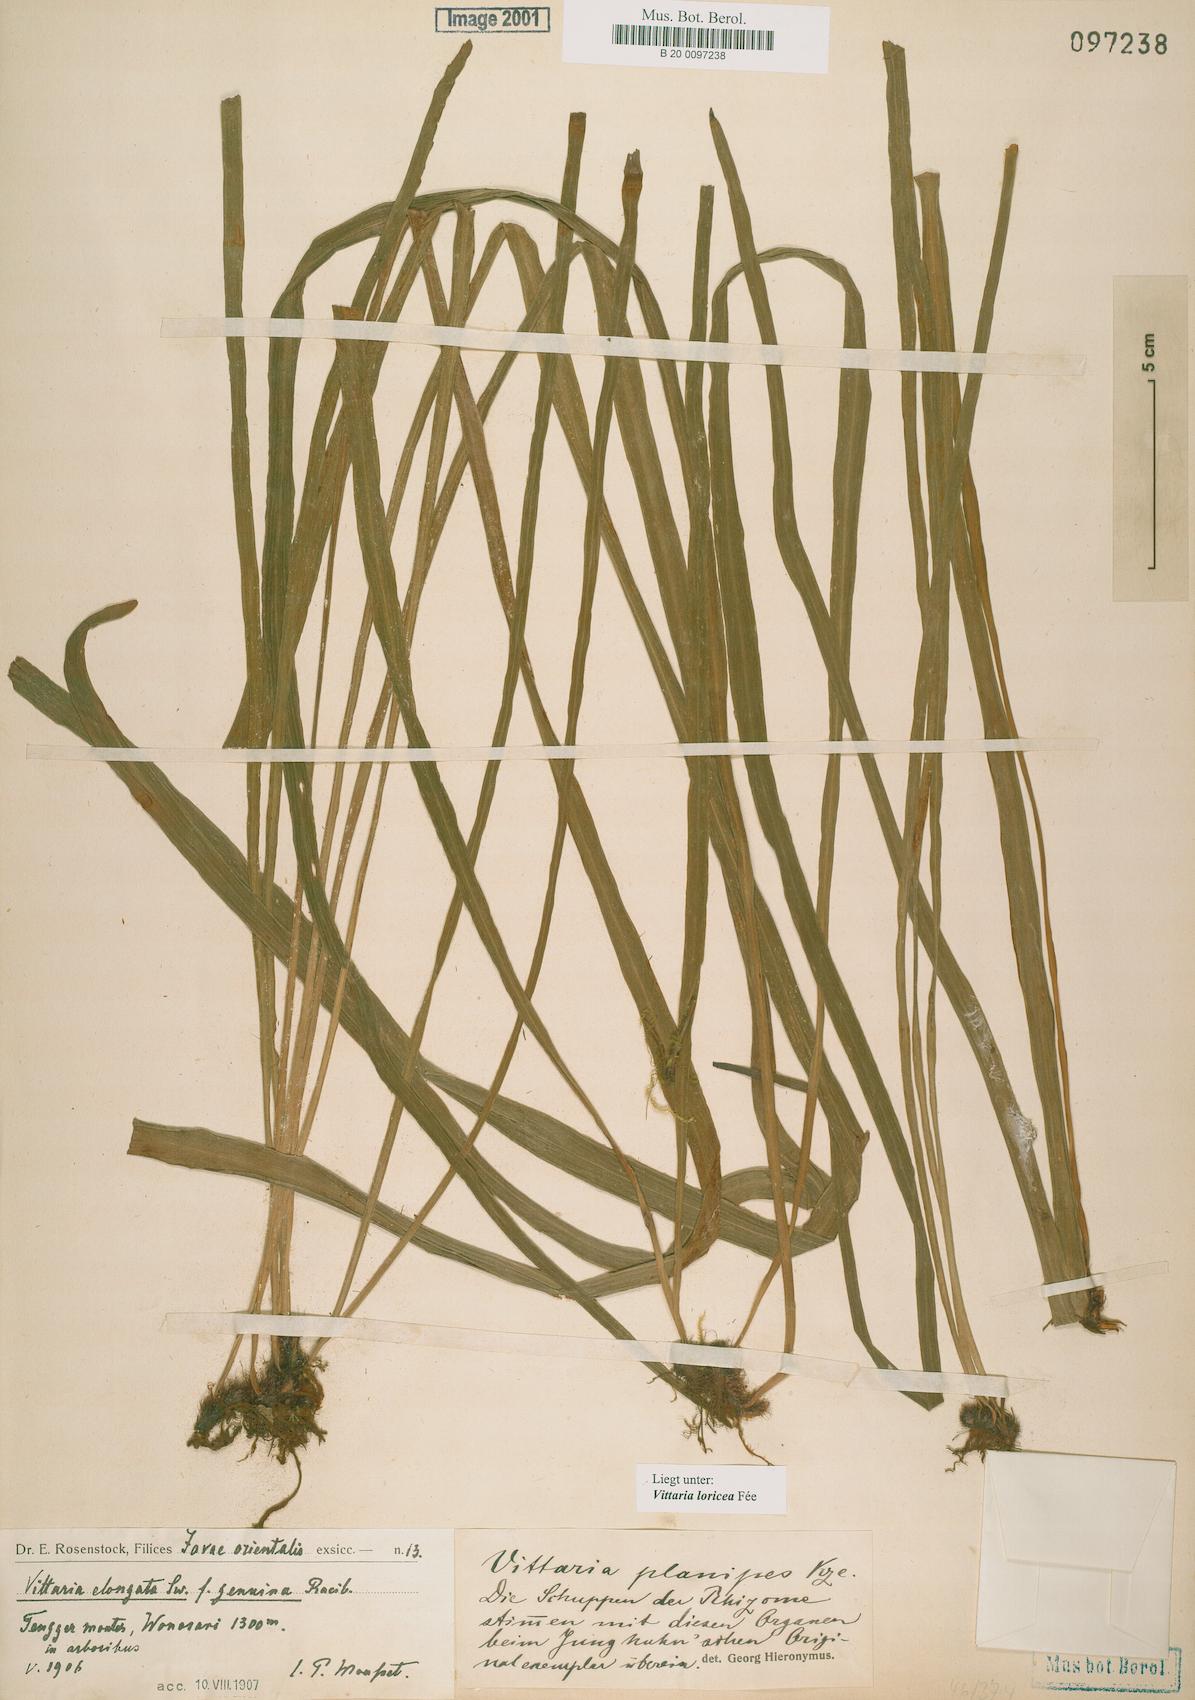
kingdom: Plantae
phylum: Tracheophyta
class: Polypodiopsida
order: Polypodiales
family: Pteridaceae
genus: Haplopteris
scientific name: Haplopteris zosterifolia
